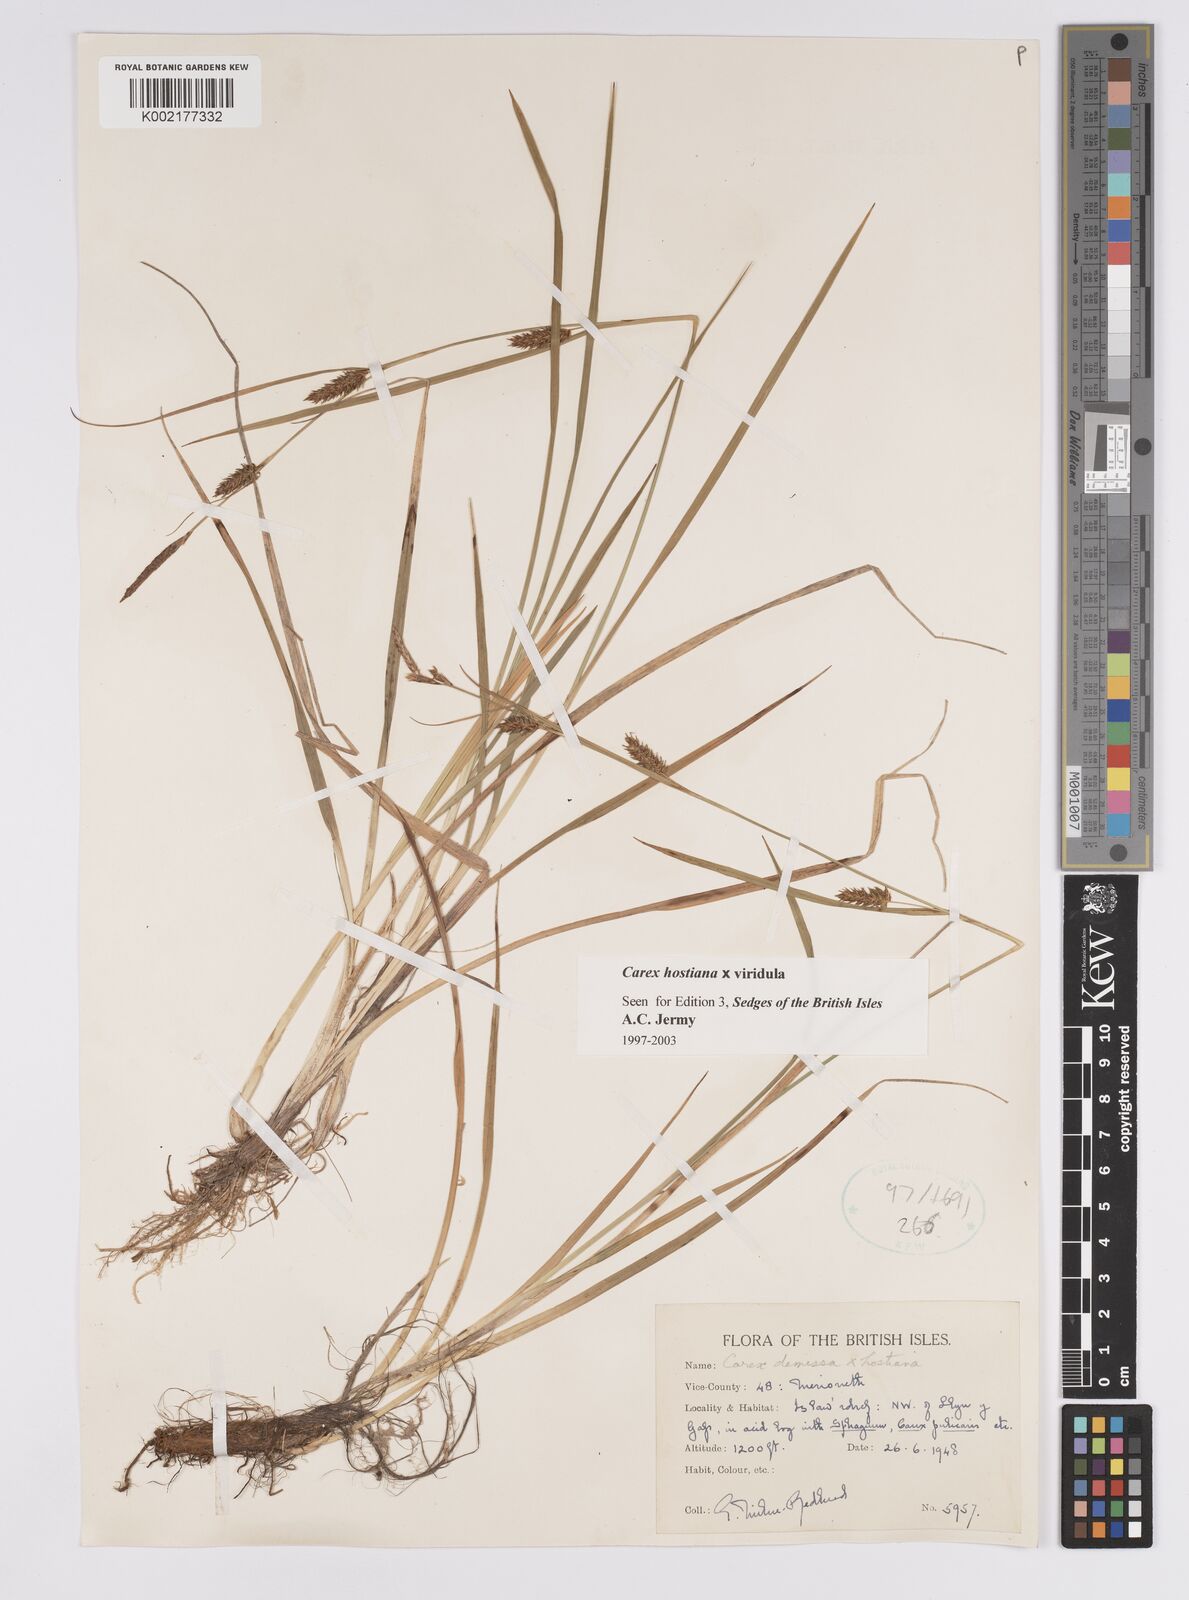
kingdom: Plantae
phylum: Tracheophyta
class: Liliopsida
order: Poales
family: Cyperaceae
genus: Carex
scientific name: Carex hostiana
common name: Tawny sedge
